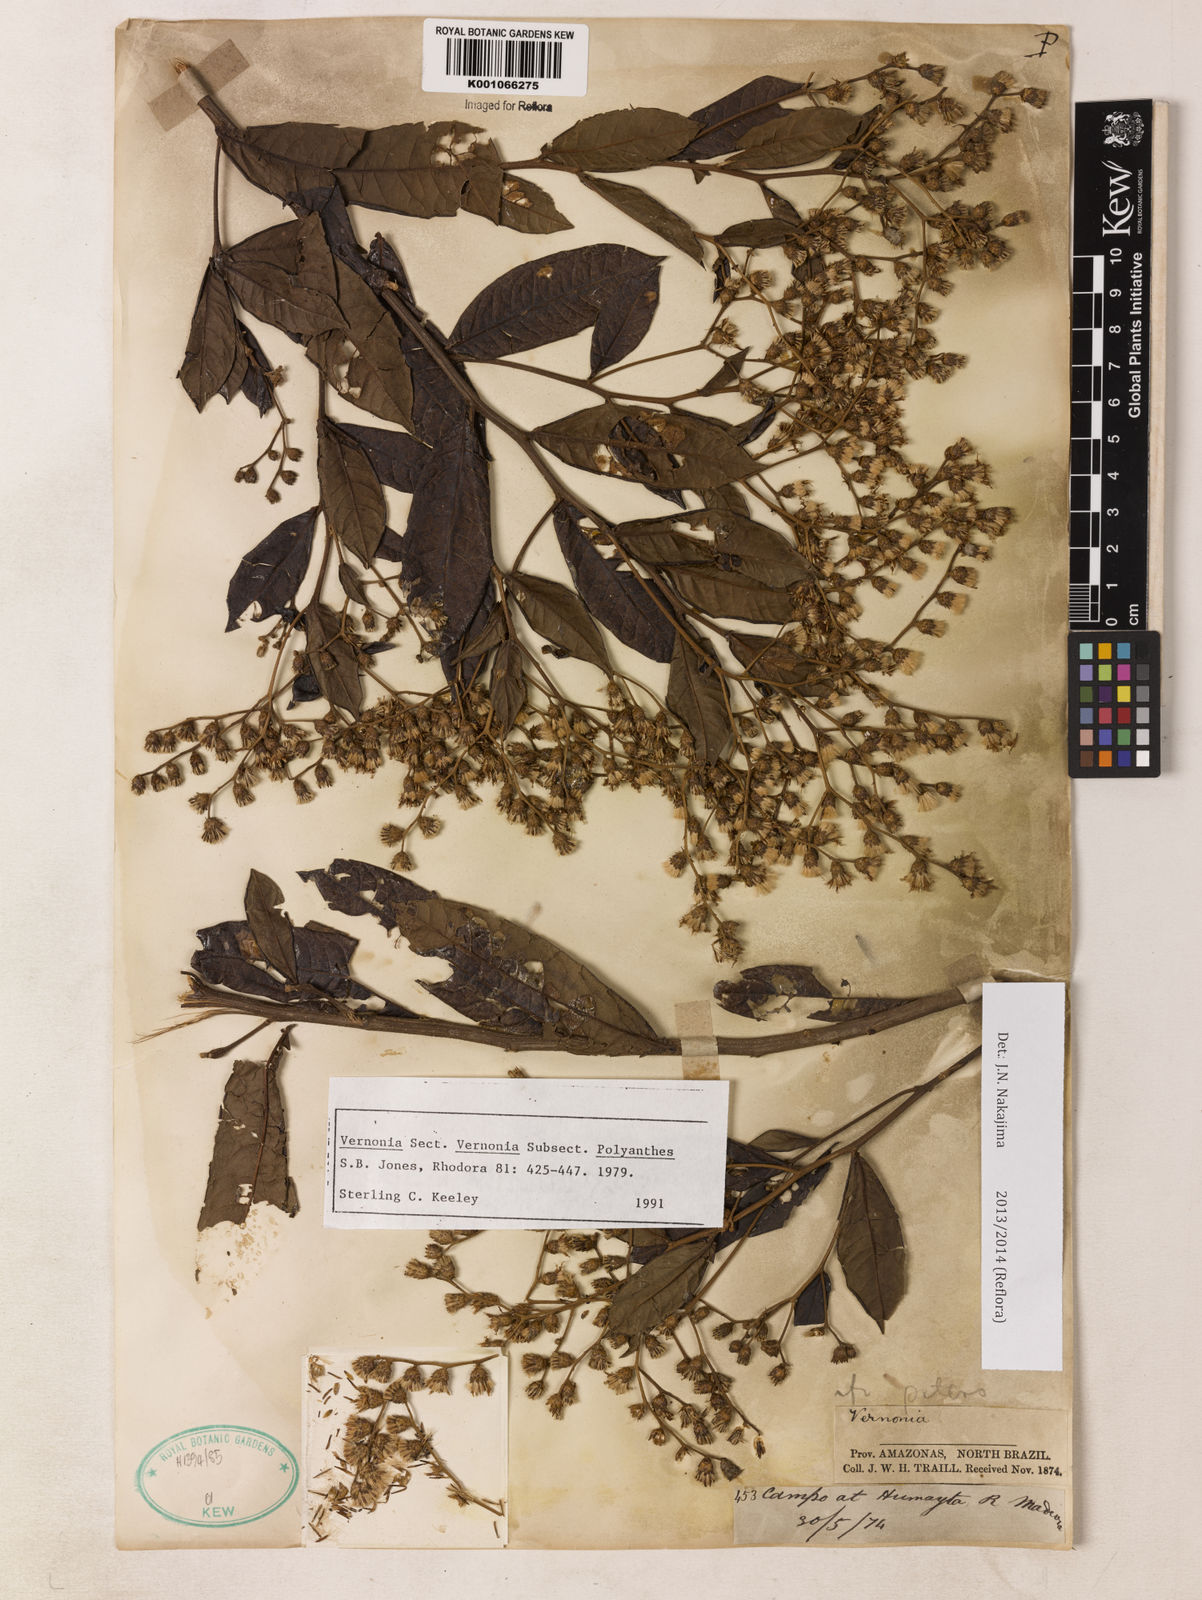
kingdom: Plantae
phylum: Tracheophyta
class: Magnoliopsida
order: Asterales
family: Asteraceae
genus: Vernonanthura
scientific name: Vernonanthura membranacea
